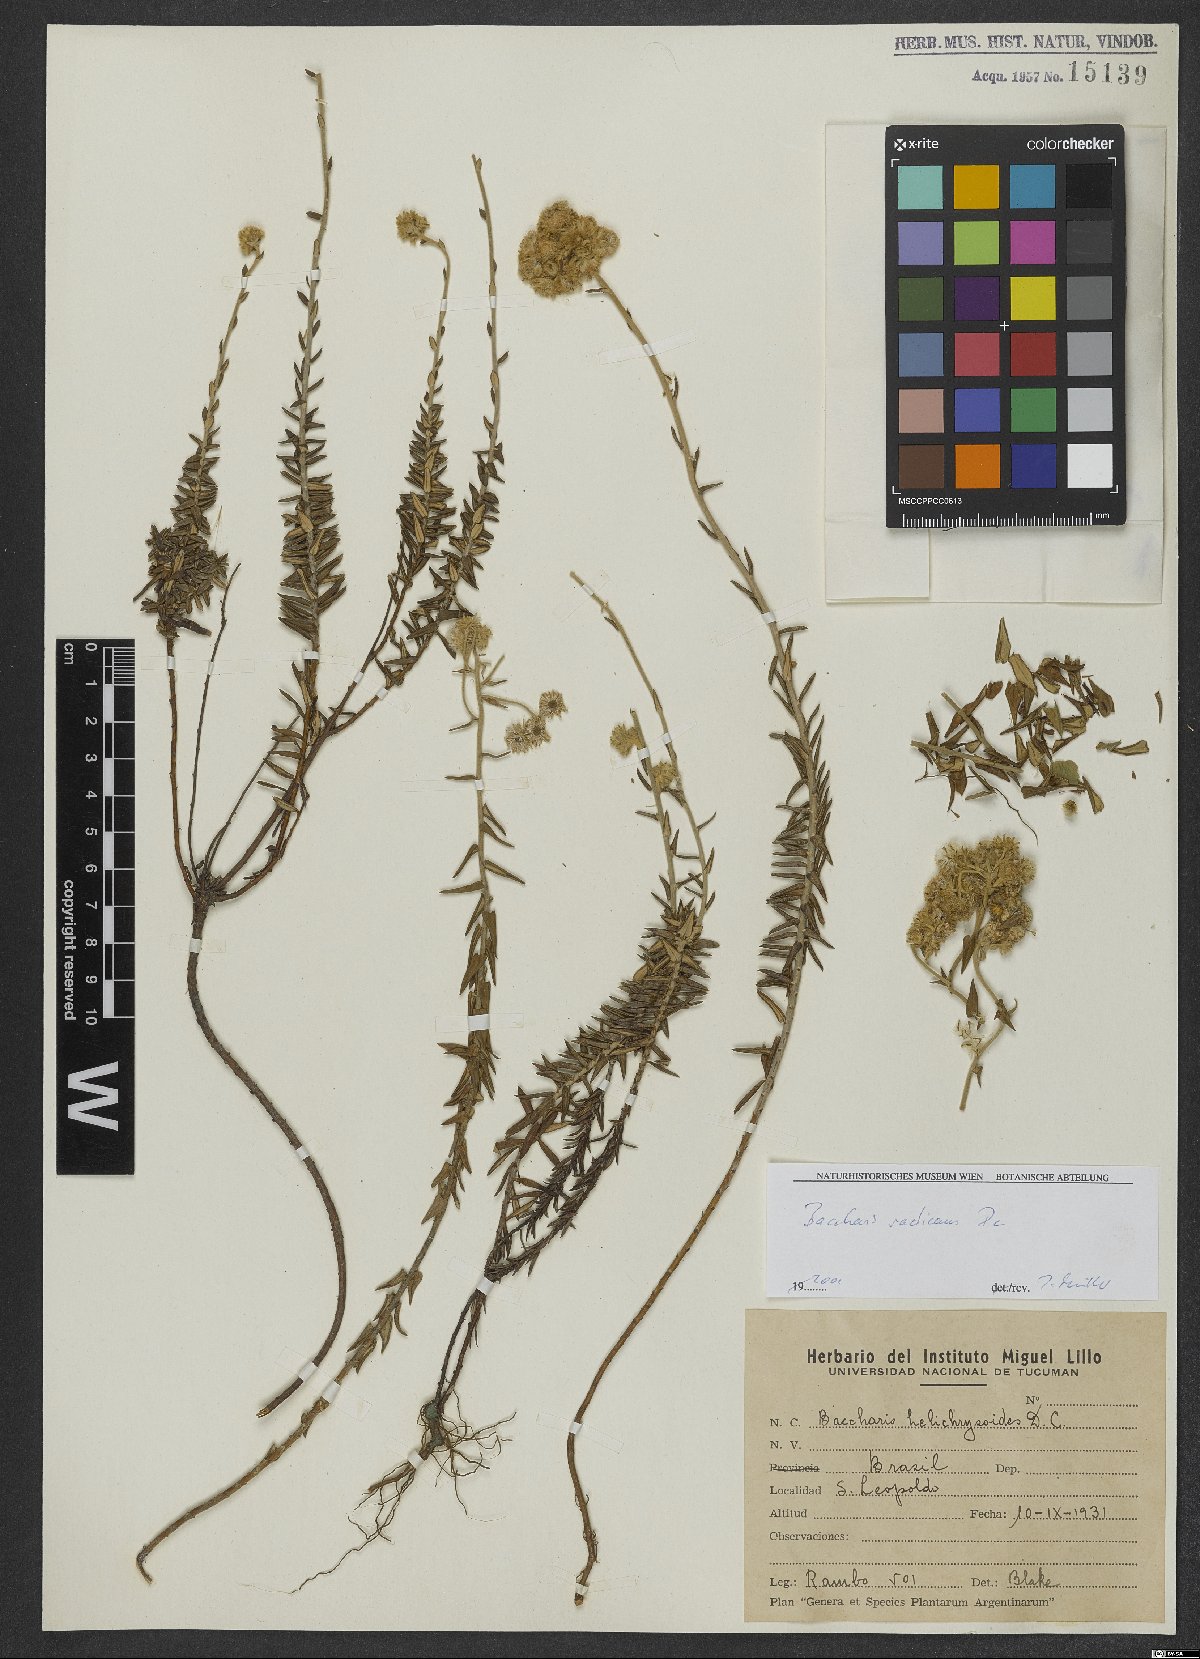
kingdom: Plantae
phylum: Tracheophyta
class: Magnoliopsida
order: Asterales
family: Asteraceae
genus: Baccharis
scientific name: Baccharis gnaphalioides
